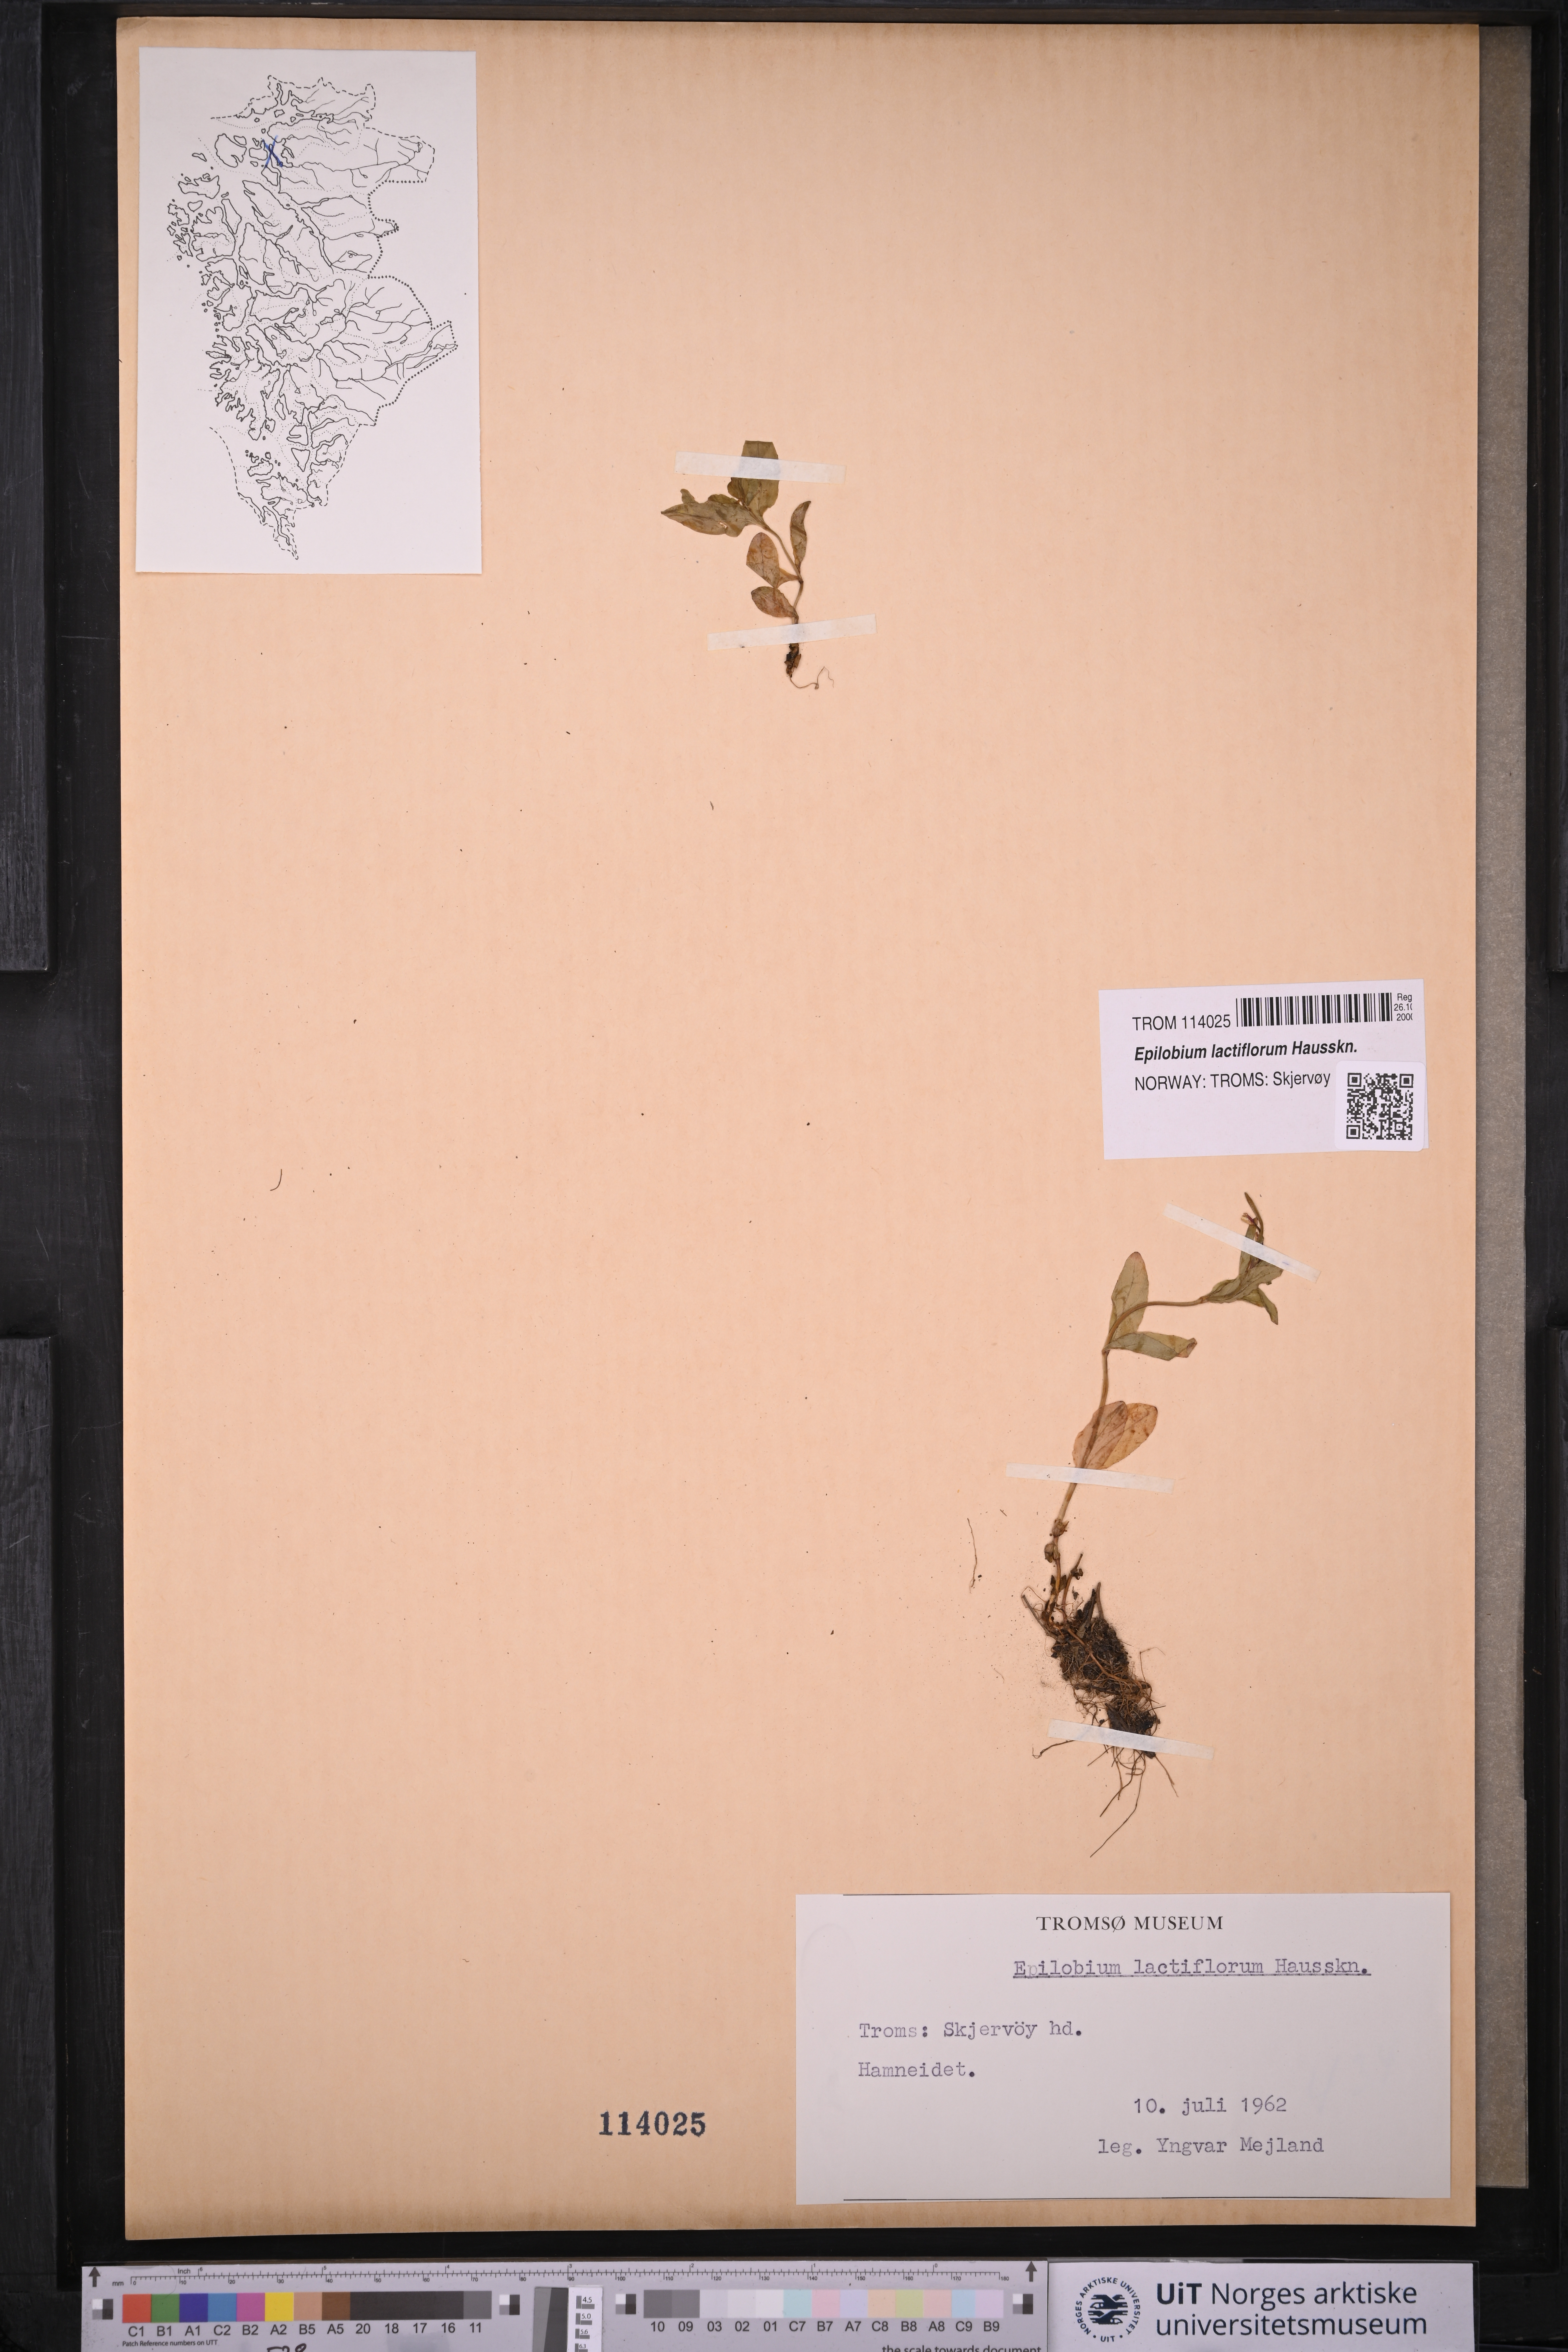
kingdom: Plantae
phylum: Tracheophyta
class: Magnoliopsida
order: Myrtales
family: Onagraceae
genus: Epilobium
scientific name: Epilobium lactiflorum
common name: Milkflower willowherb
